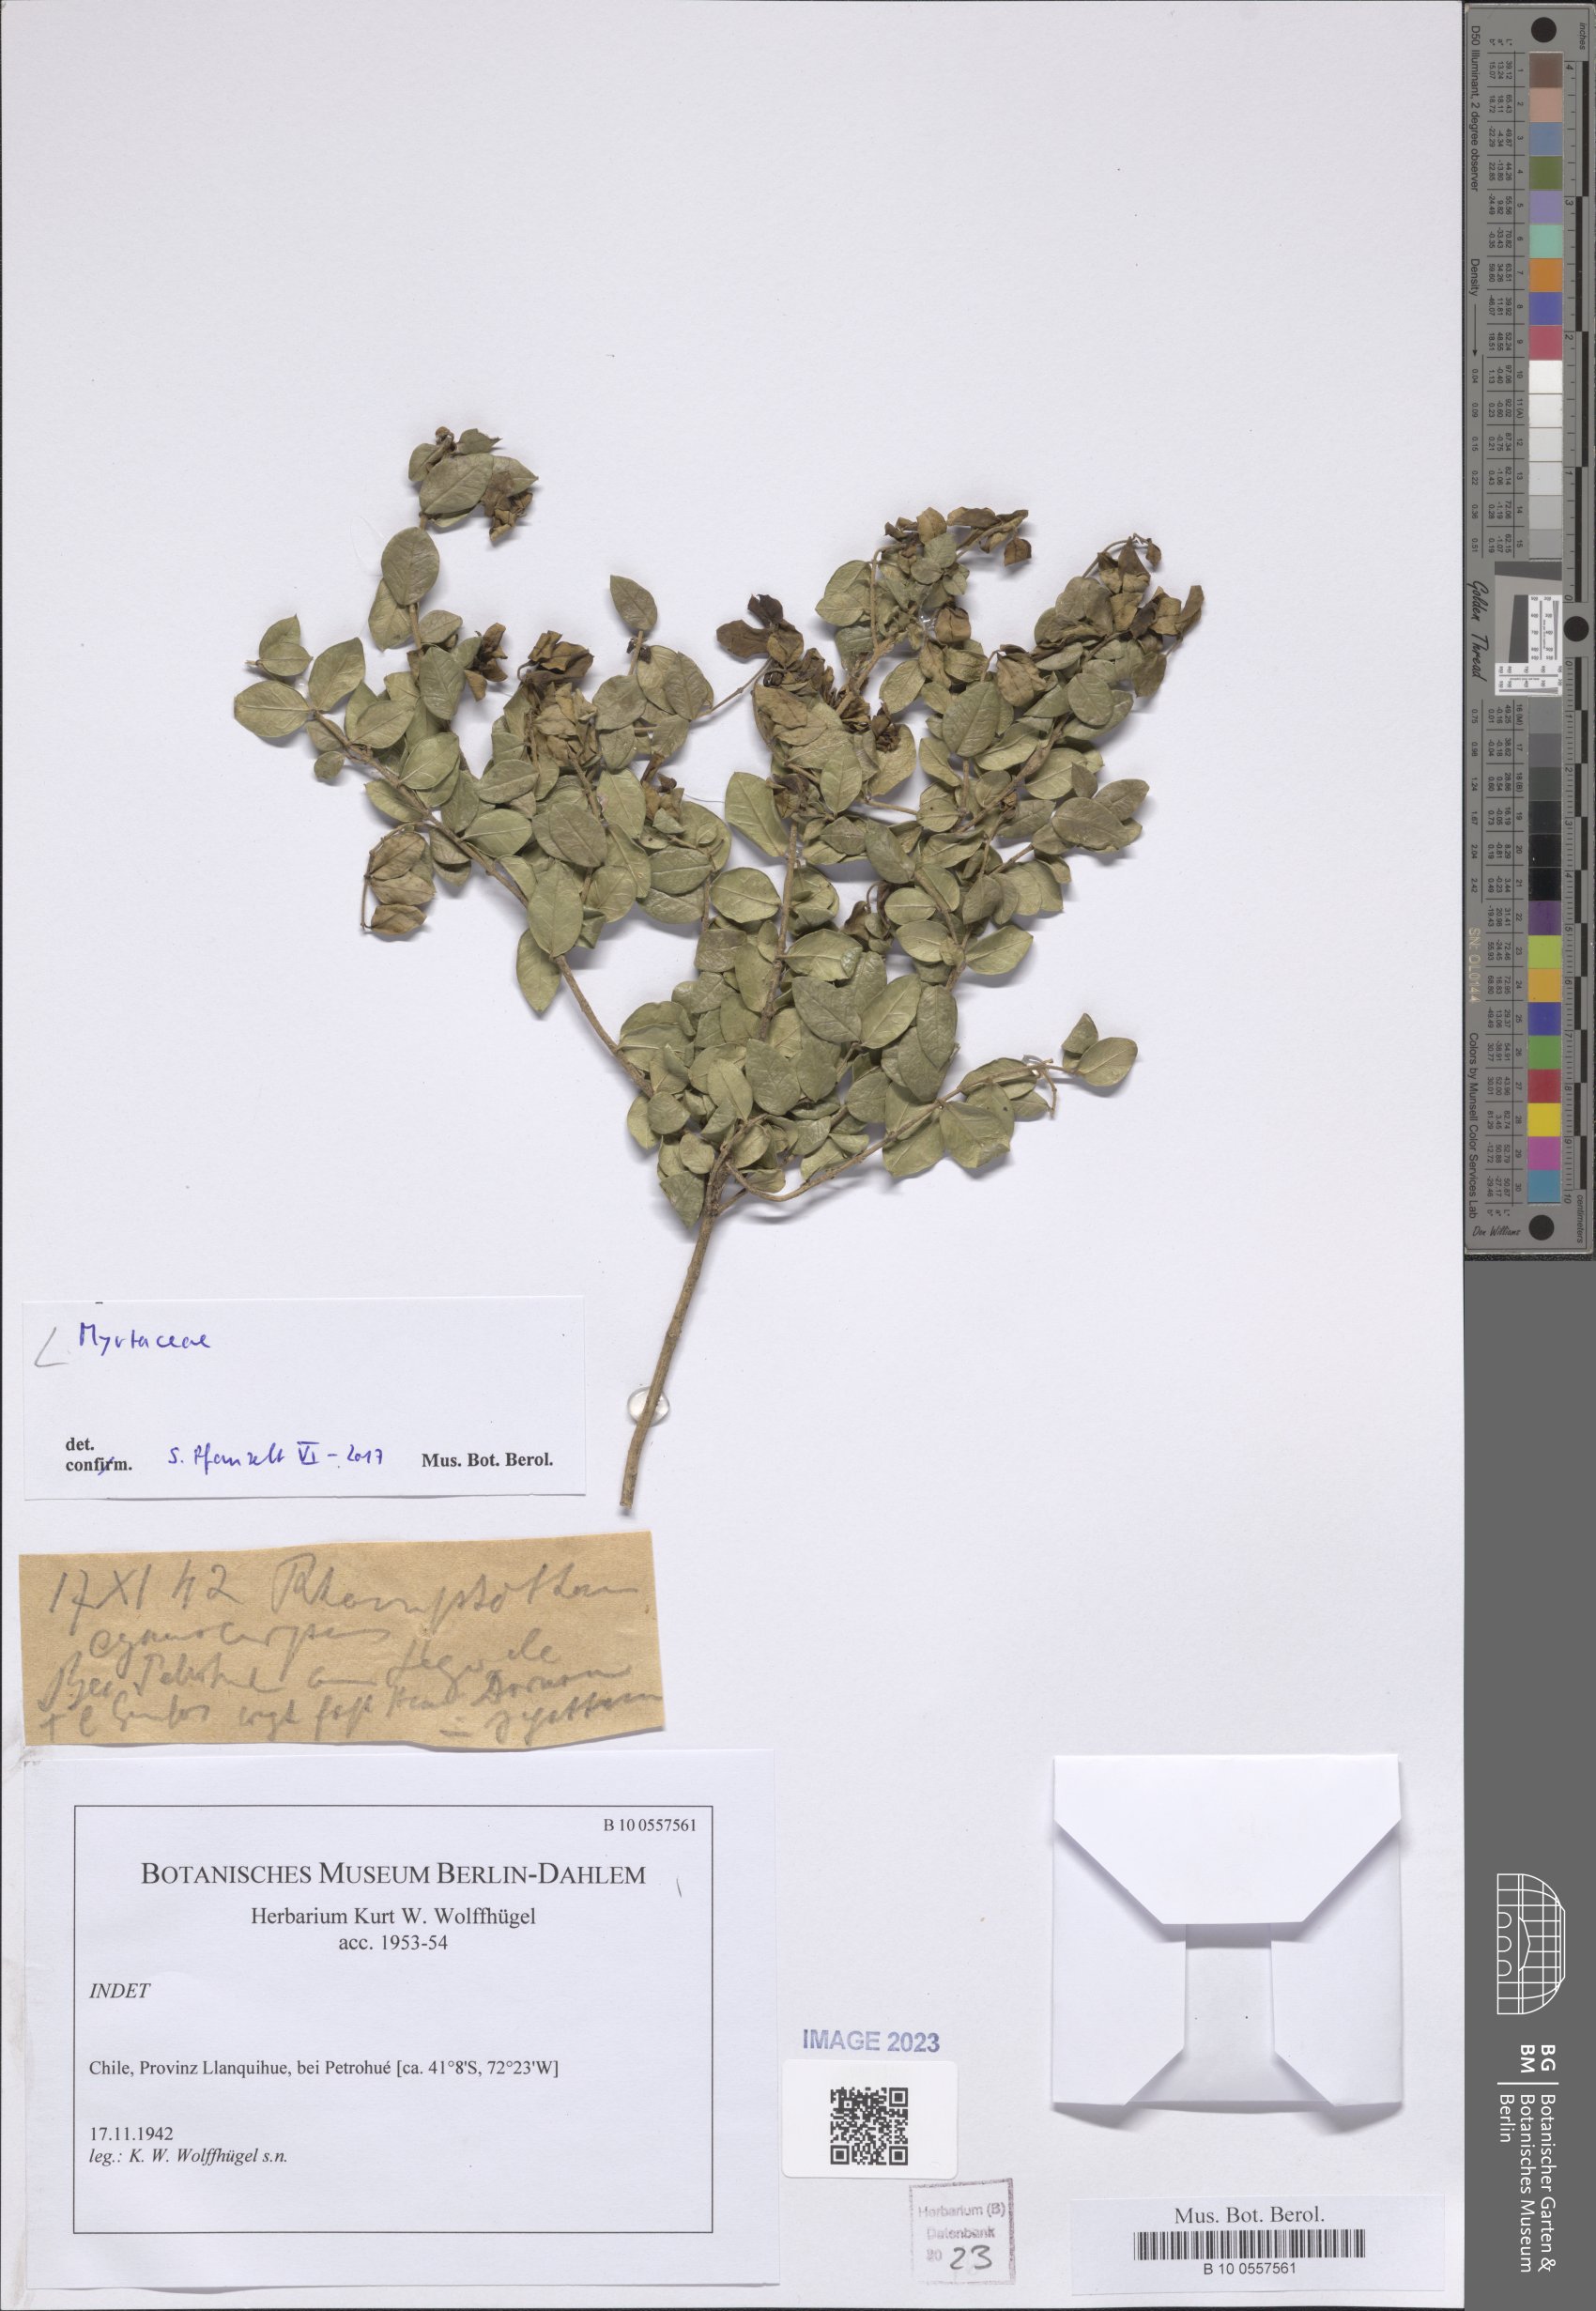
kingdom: Plantae
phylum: Tracheophyta
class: Magnoliopsida
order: Myrtales
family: Myrtaceae
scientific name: Myrtaceae
